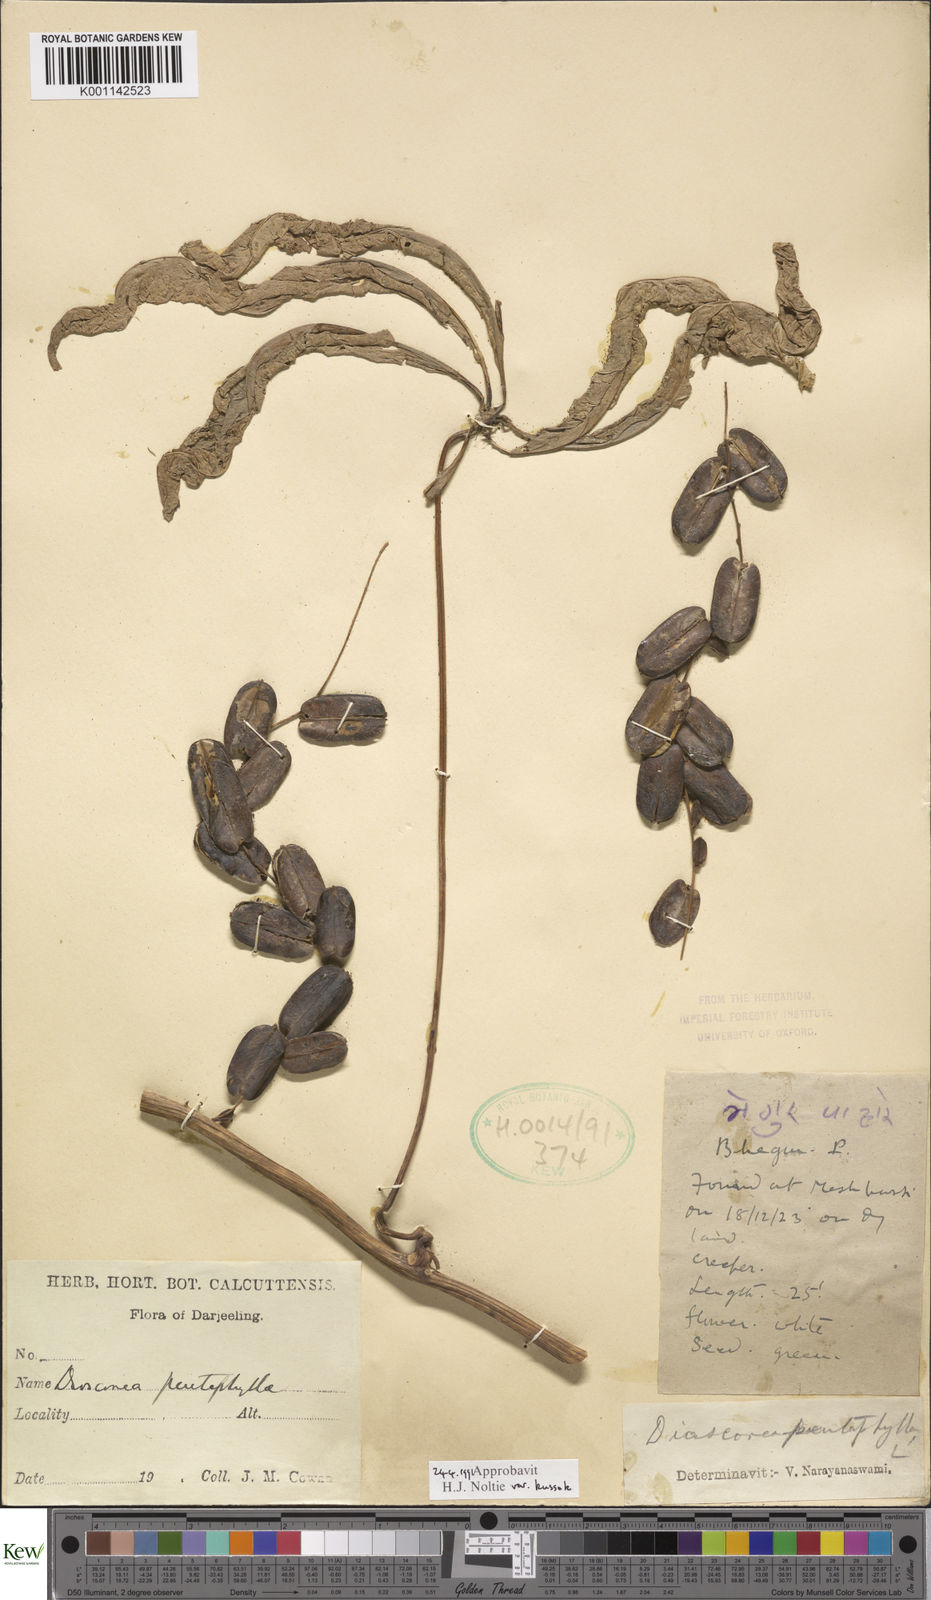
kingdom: Plantae
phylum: Tracheophyta
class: Liliopsida
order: Dioscoreales
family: Dioscoreaceae
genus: Dioscorea
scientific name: Dioscorea pentaphylla
